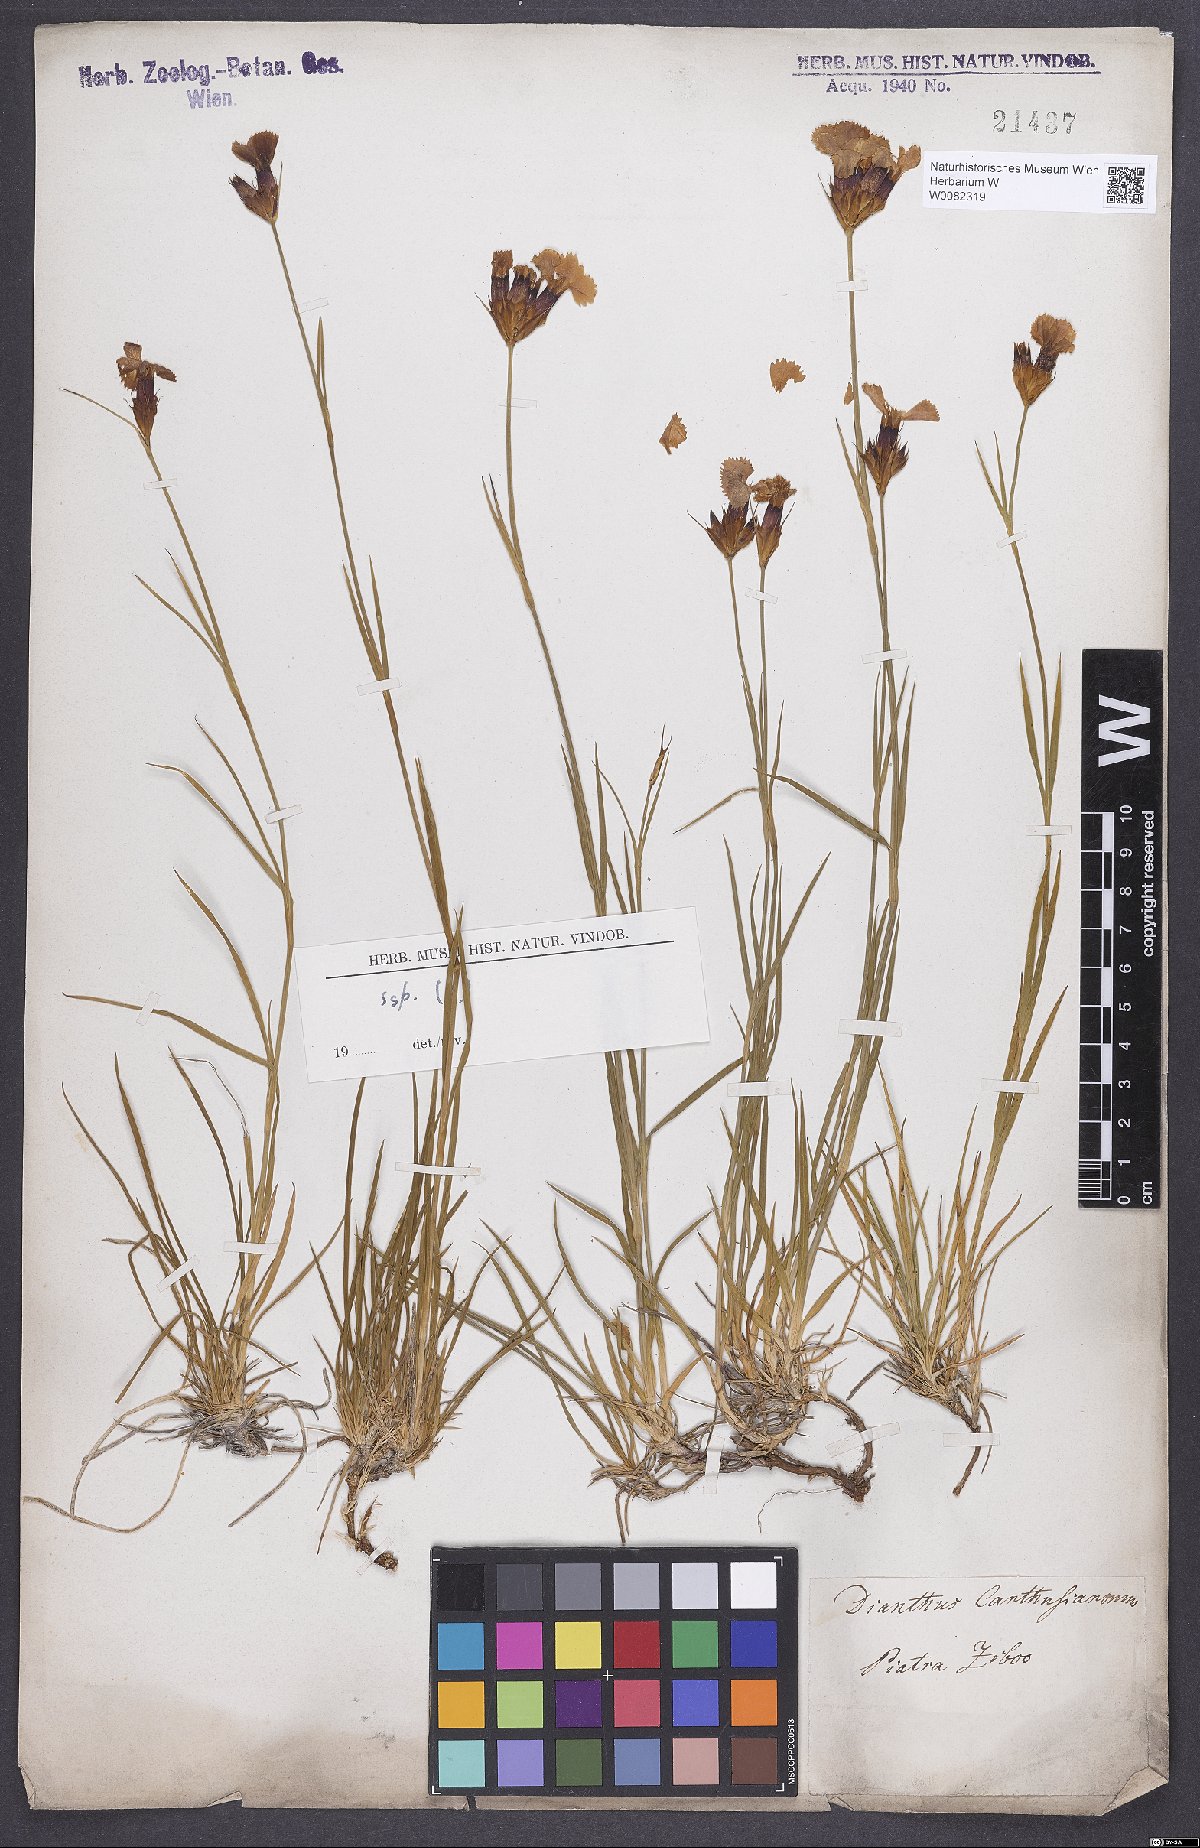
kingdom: Plantae
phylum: Tracheophyta
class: Magnoliopsida
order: Caryophyllales
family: Caryophyllaceae
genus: Dianthus
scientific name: Dianthus carthusianorum
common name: Carthusian pink
